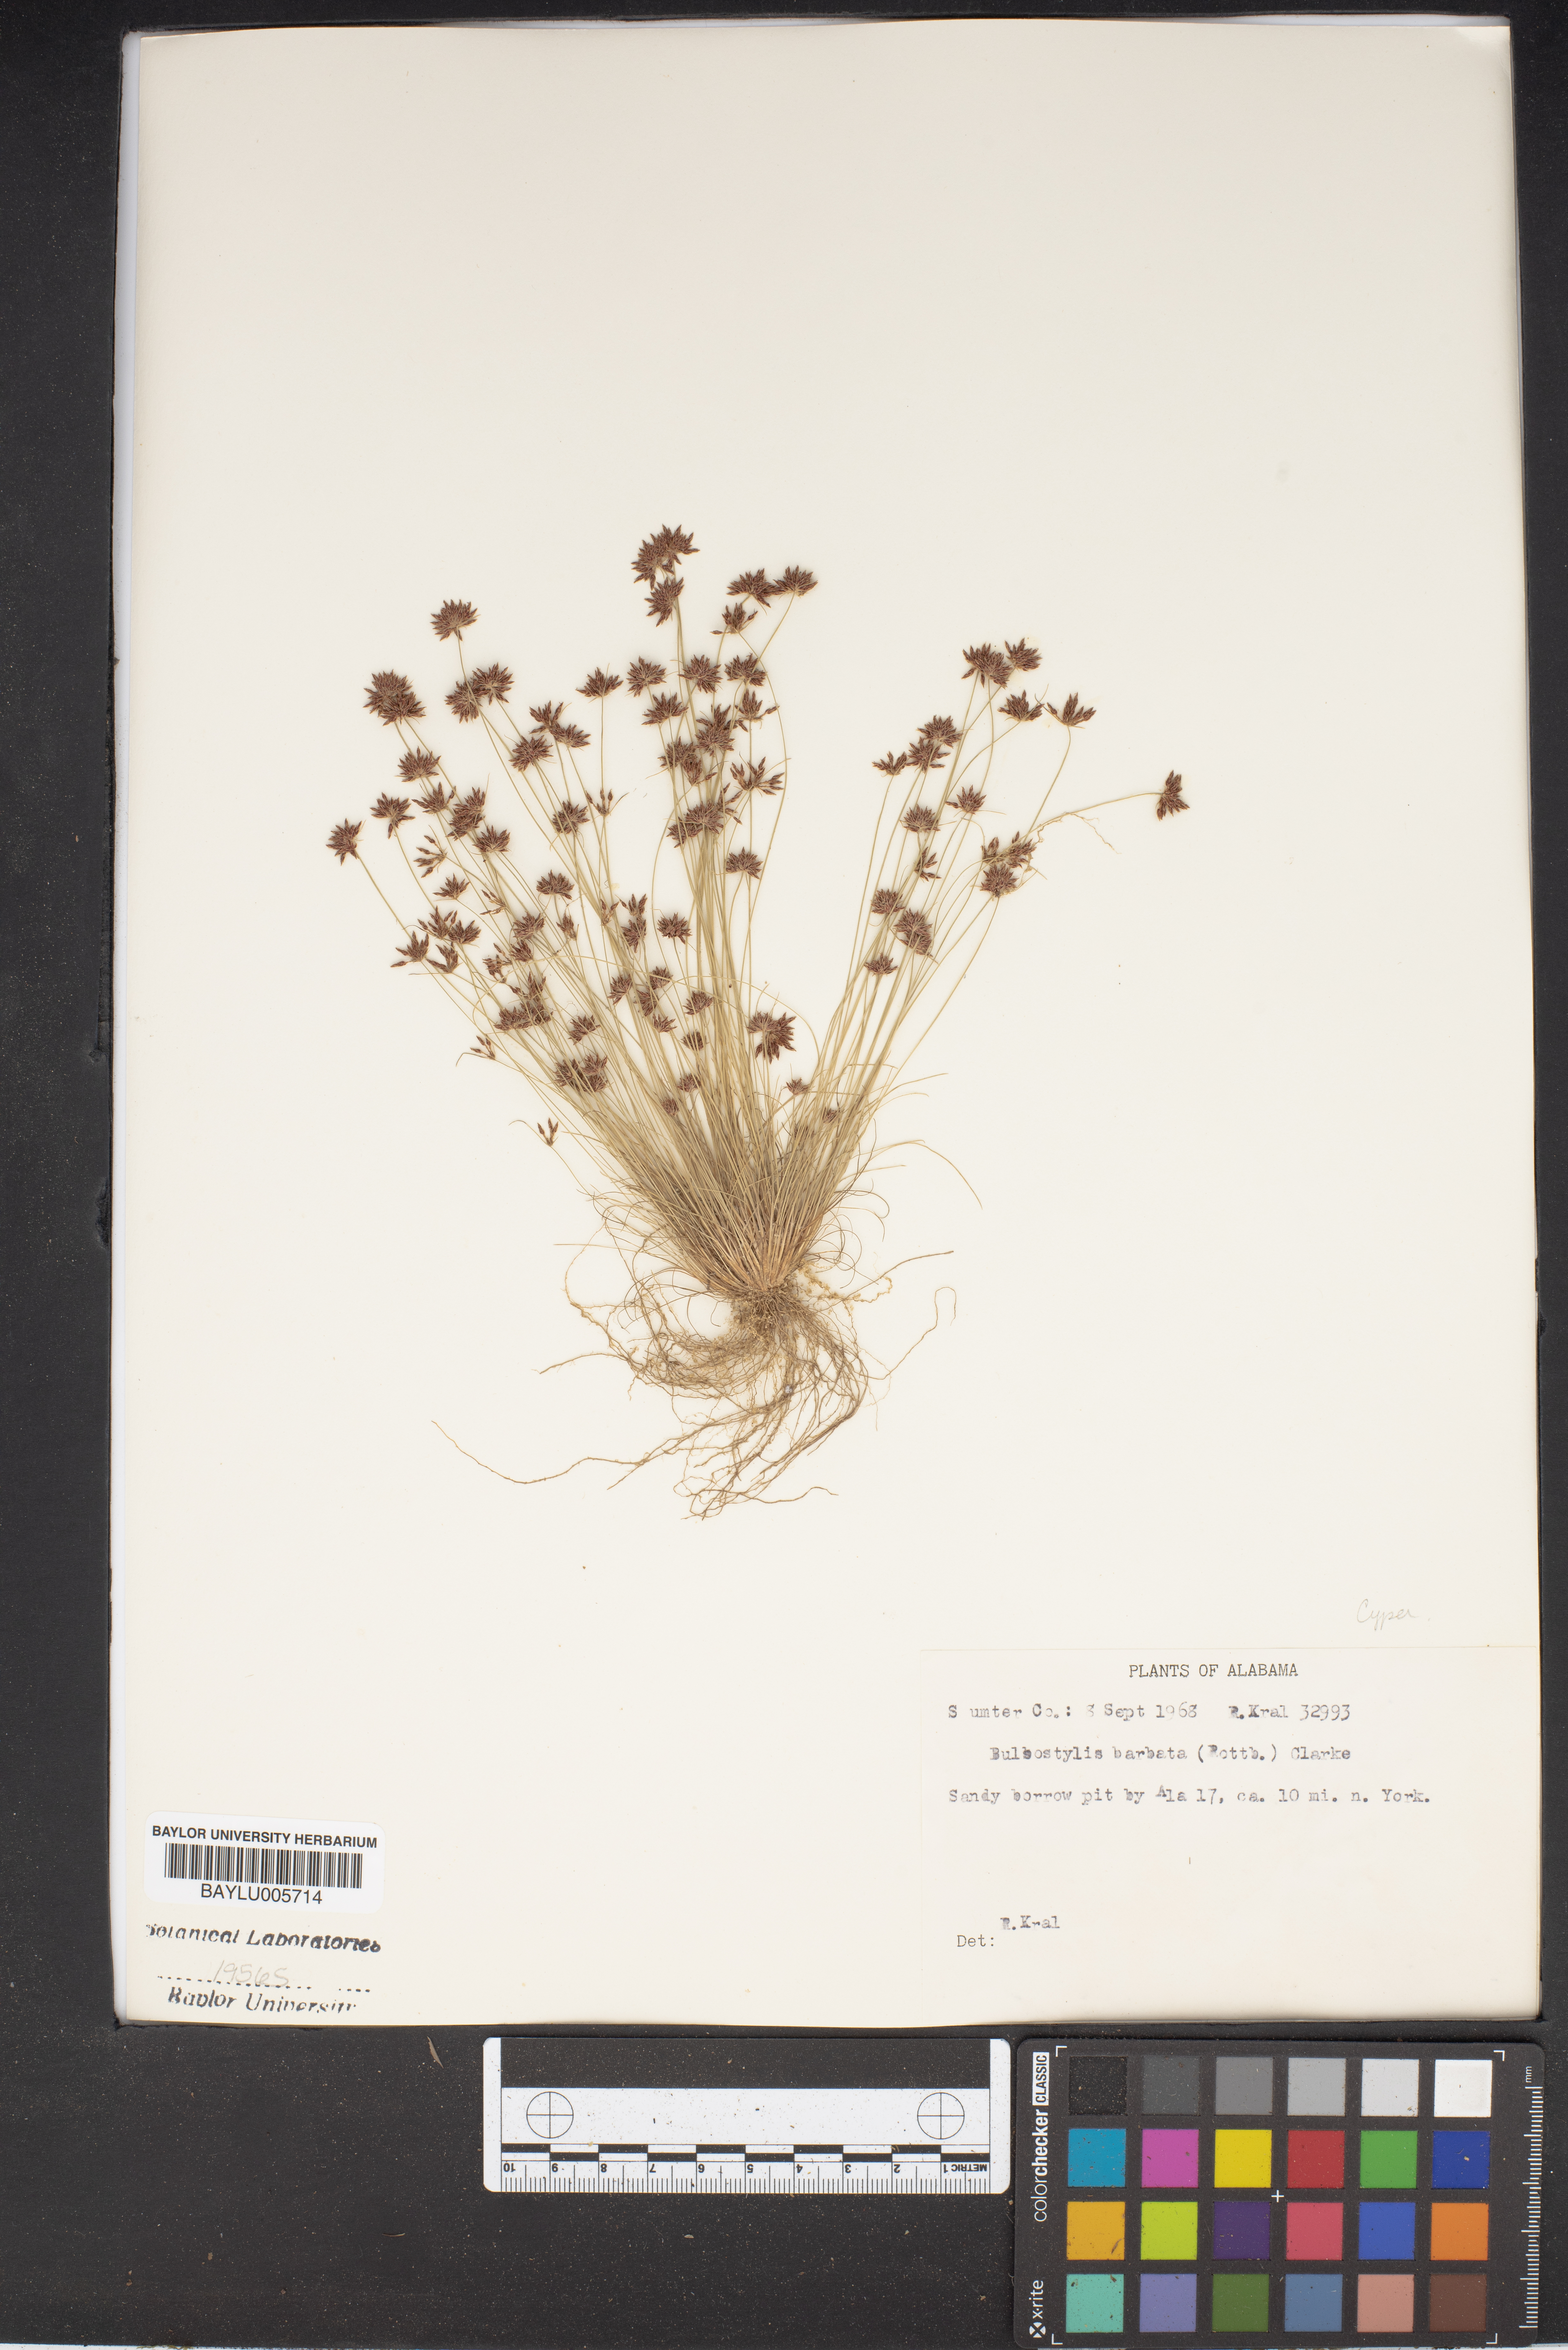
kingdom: Plantae
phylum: Tracheophyta
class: Liliopsida
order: Poales
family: Cyperaceae
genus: Bulbostylis
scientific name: Bulbostylis barbata
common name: Watergrass
